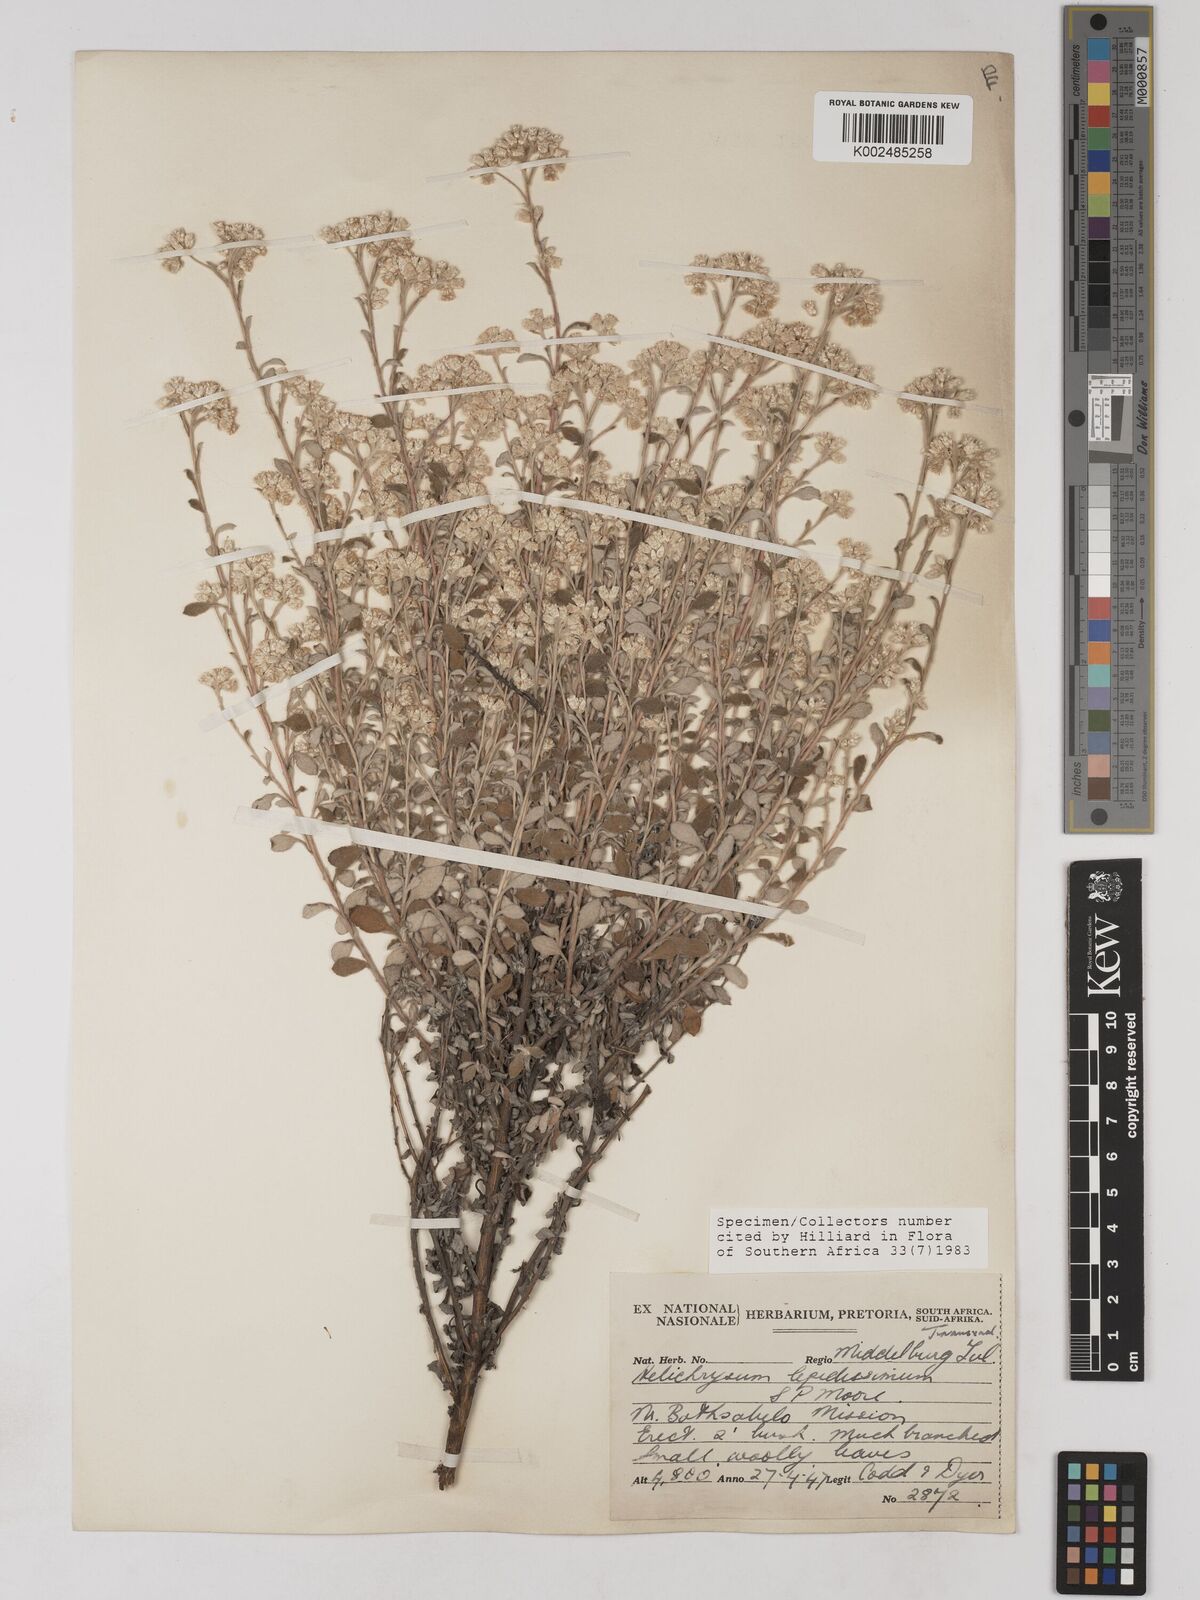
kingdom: Plantae
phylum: Tracheophyta
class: Magnoliopsida
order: Asterales
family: Asteraceae
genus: Helichrysum
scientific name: Helichrysum lepidissimum
